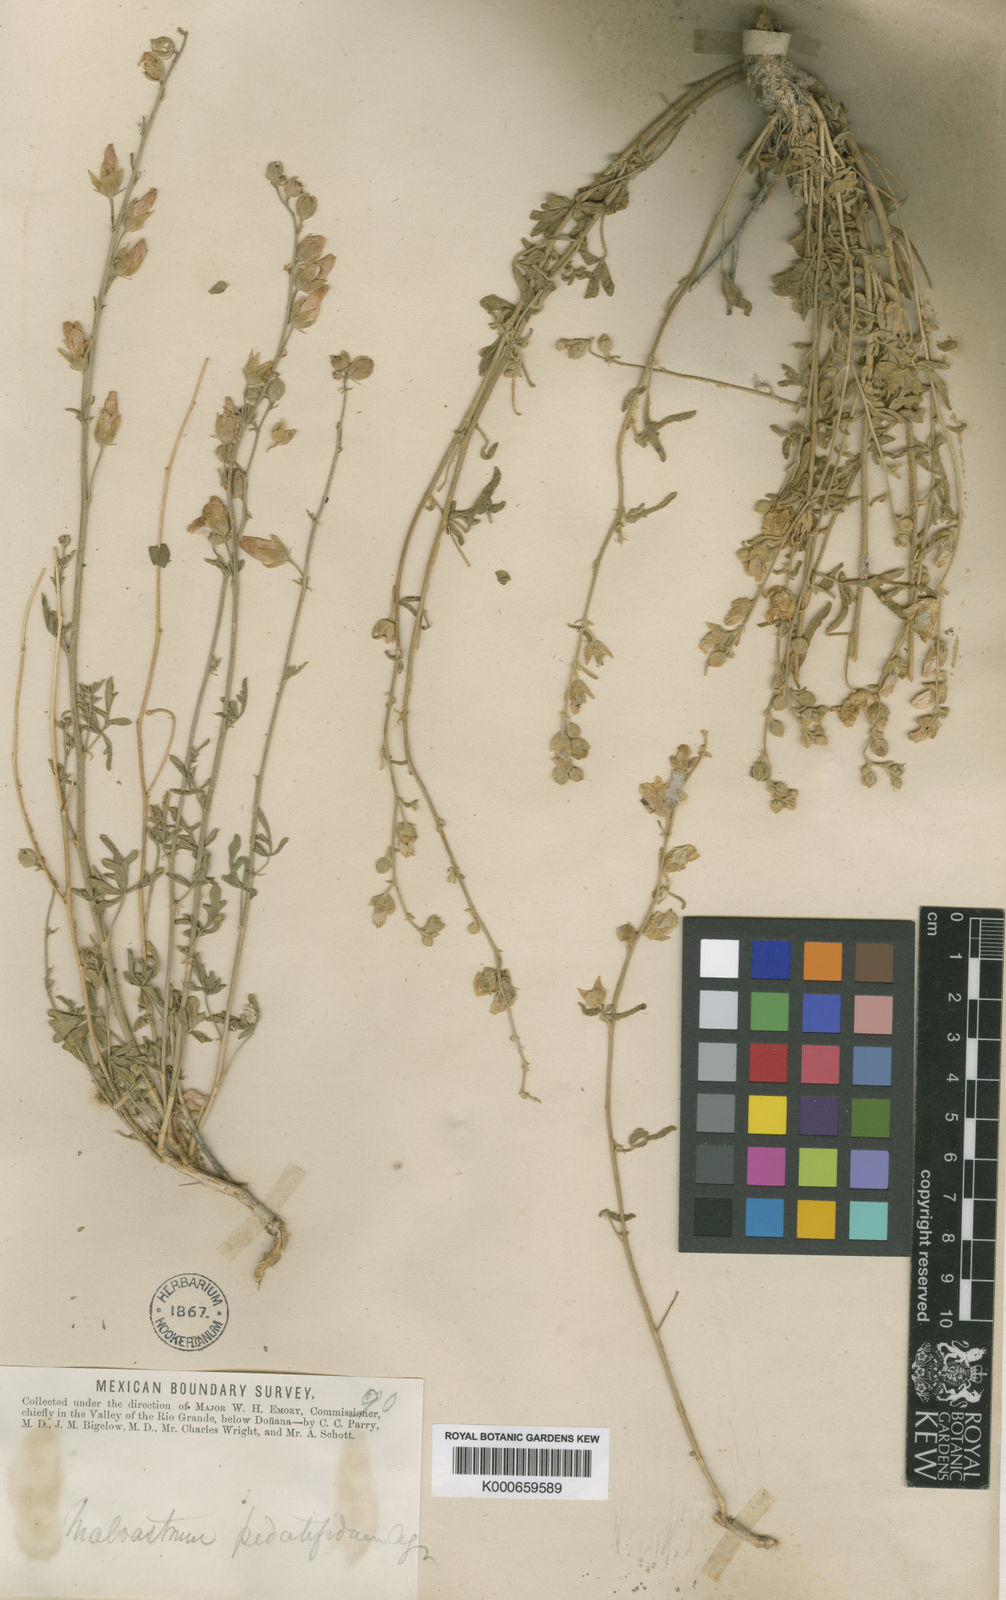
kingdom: Plantae
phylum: Tracheophyta
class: Magnoliopsida
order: Malvales
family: Malvaceae
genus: Sphaeralcea
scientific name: Sphaeralcea pedatifida
